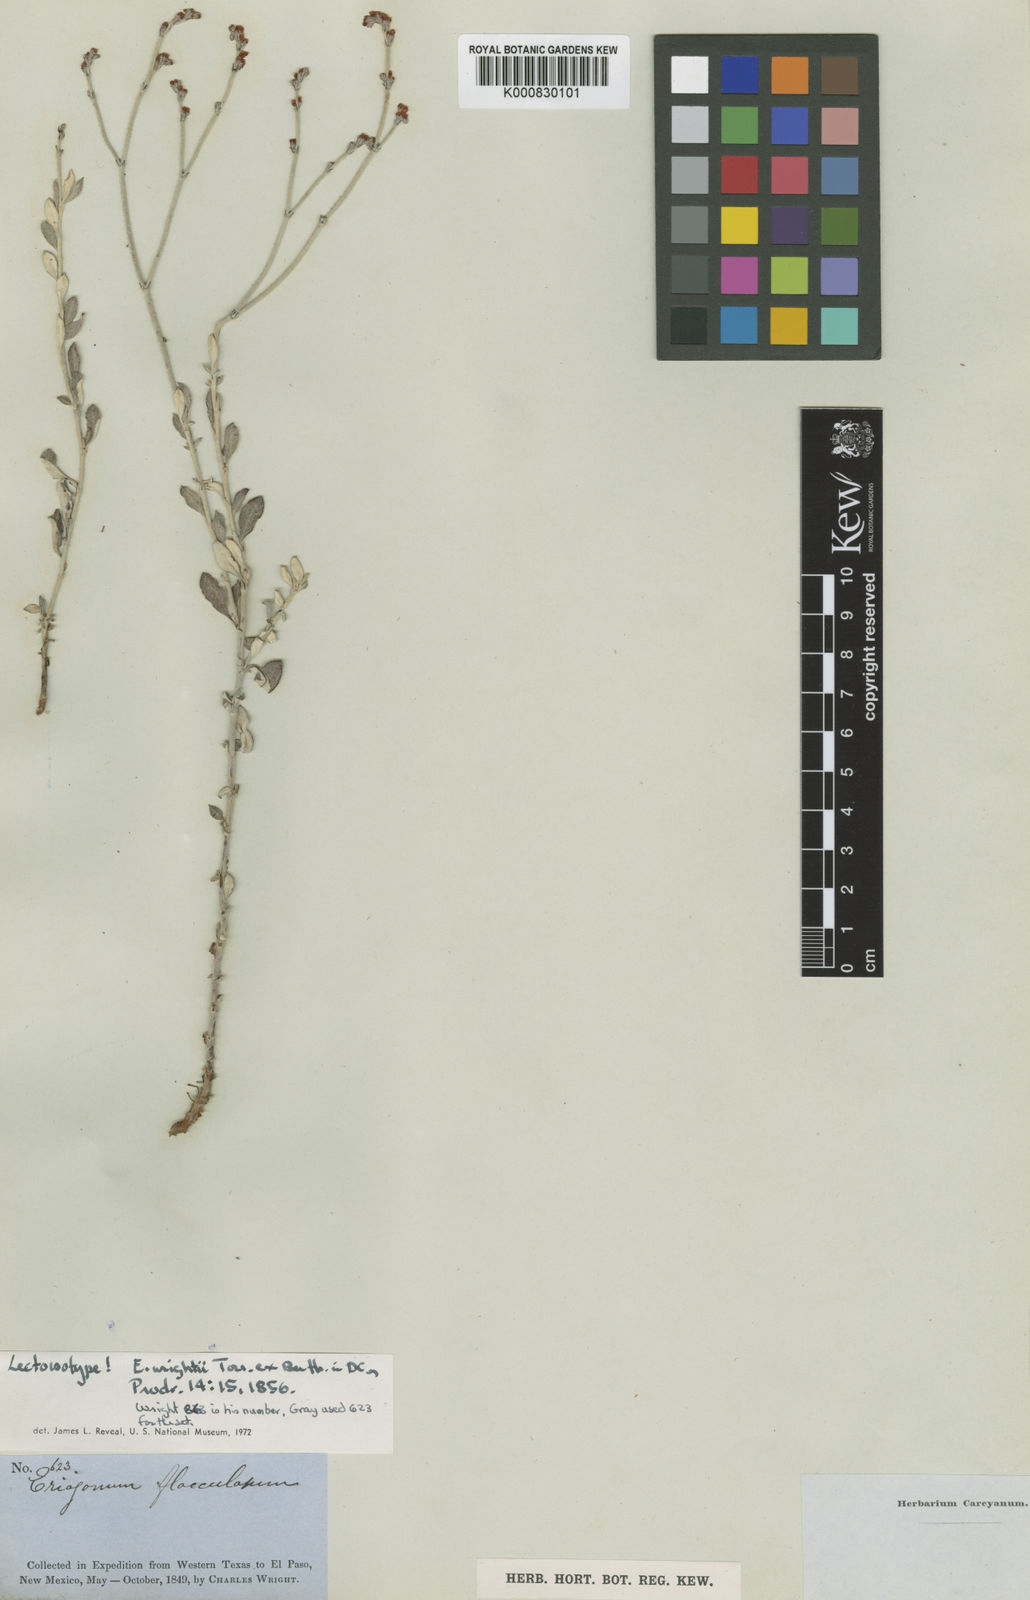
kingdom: Plantae
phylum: Tracheophyta
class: Magnoliopsida
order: Caryophyllales
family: Polygonaceae
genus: Eriogonum
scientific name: Eriogonum wrightii
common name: Bastard-sage
